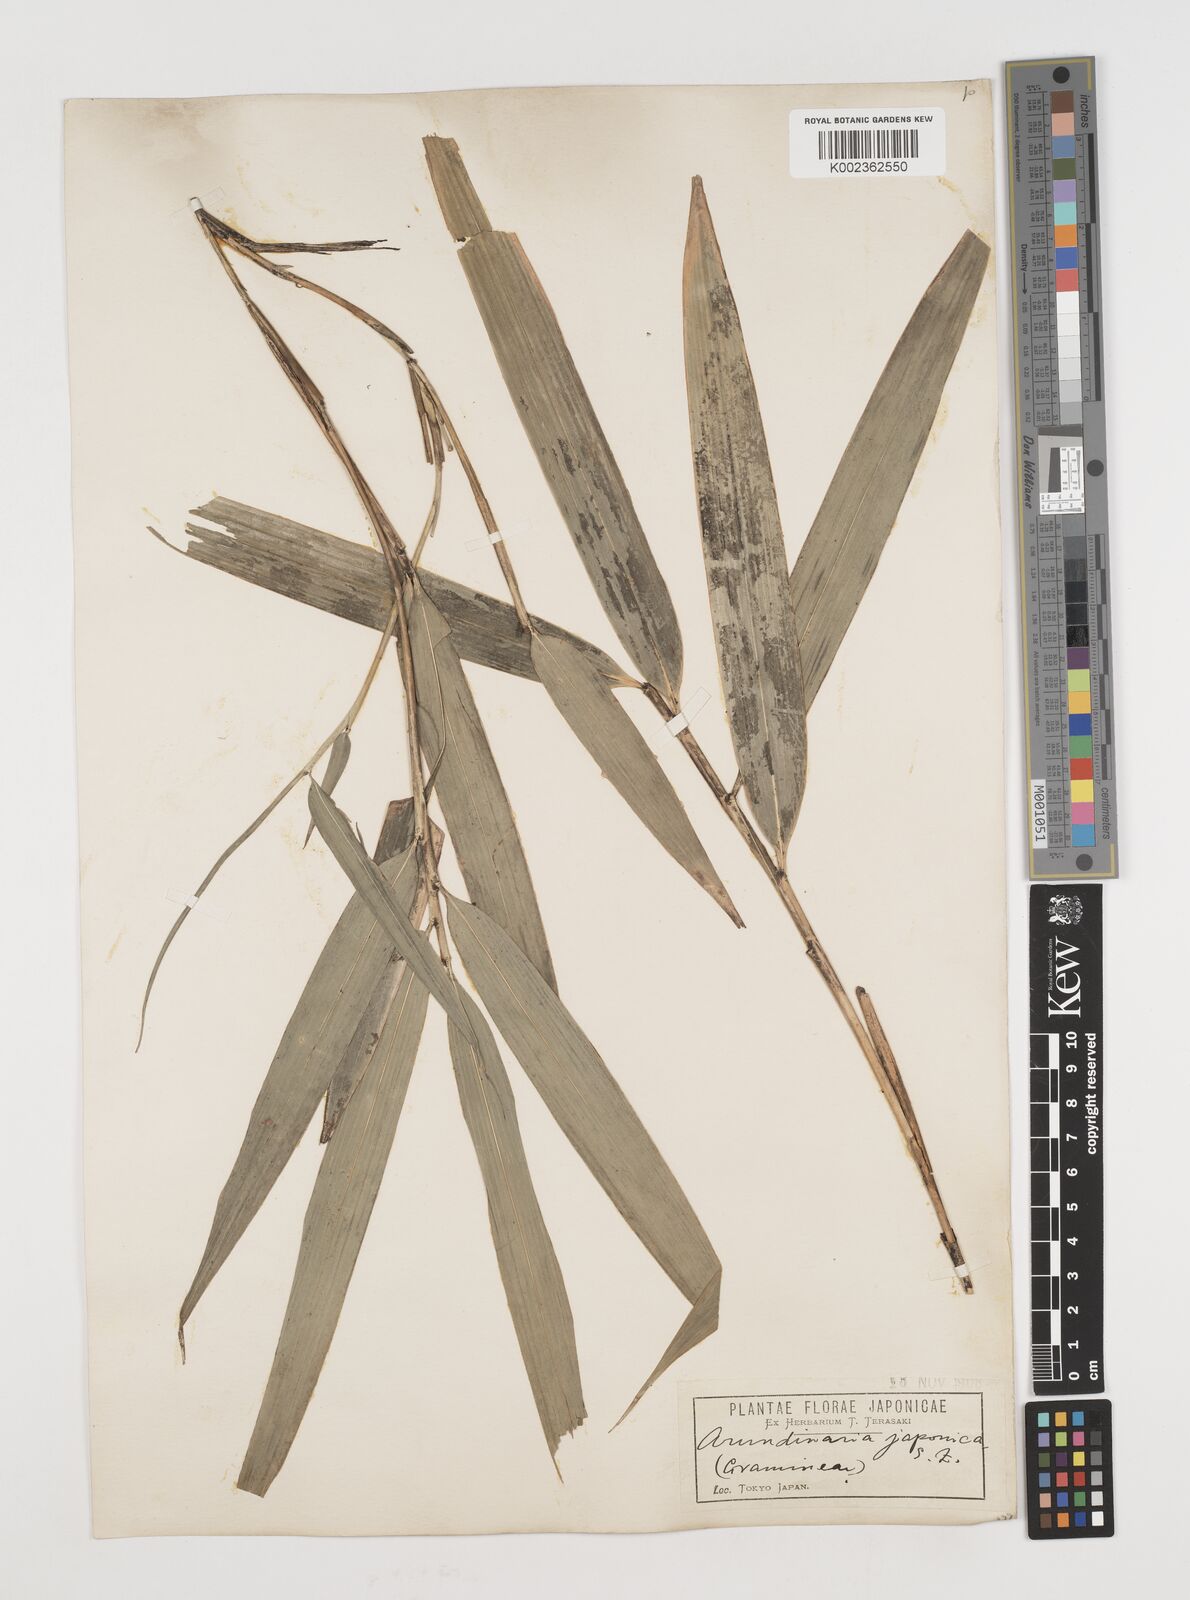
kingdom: Plantae
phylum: Tracheophyta
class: Liliopsida
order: Poales
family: Poaceae
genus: Pseudosasa
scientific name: Pseudosasa japonica
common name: Arrow bamboo
